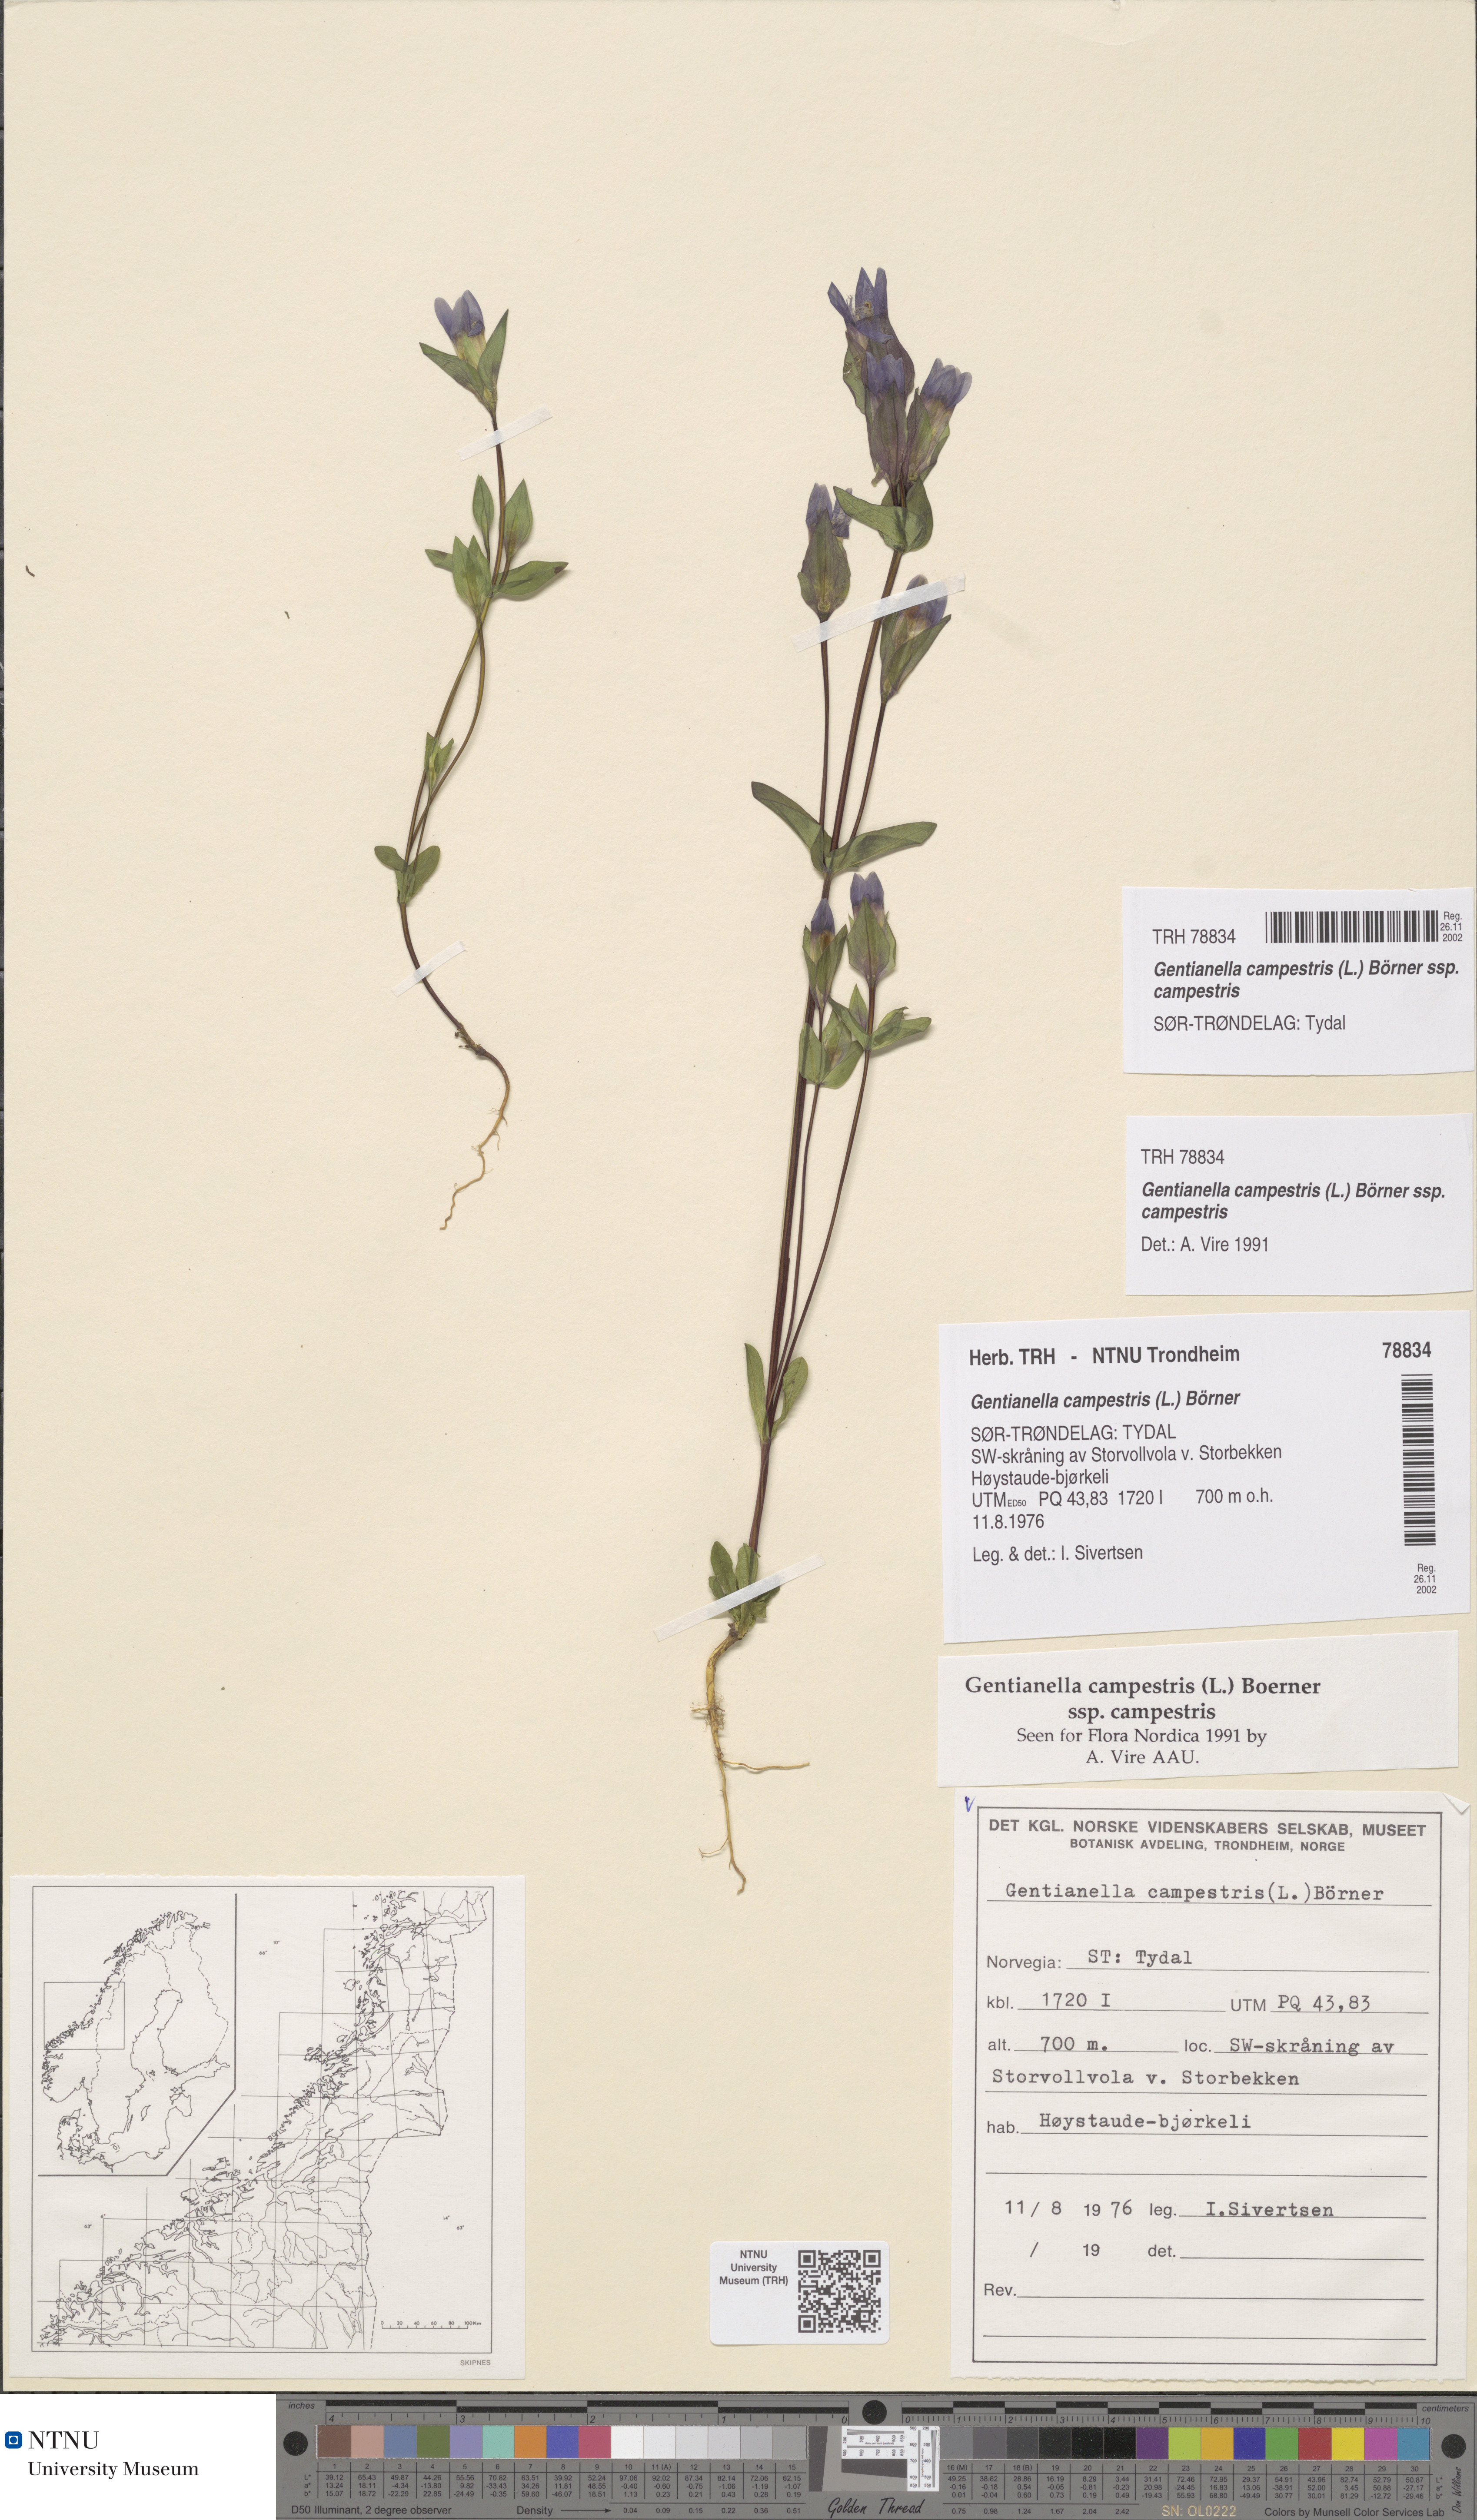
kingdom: Plantae
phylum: Tracheophyta
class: Magnoliopsida
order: Gentianales
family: Gentianaceae
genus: Gentianella
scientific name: Gentianella campestris
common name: Field gentian
